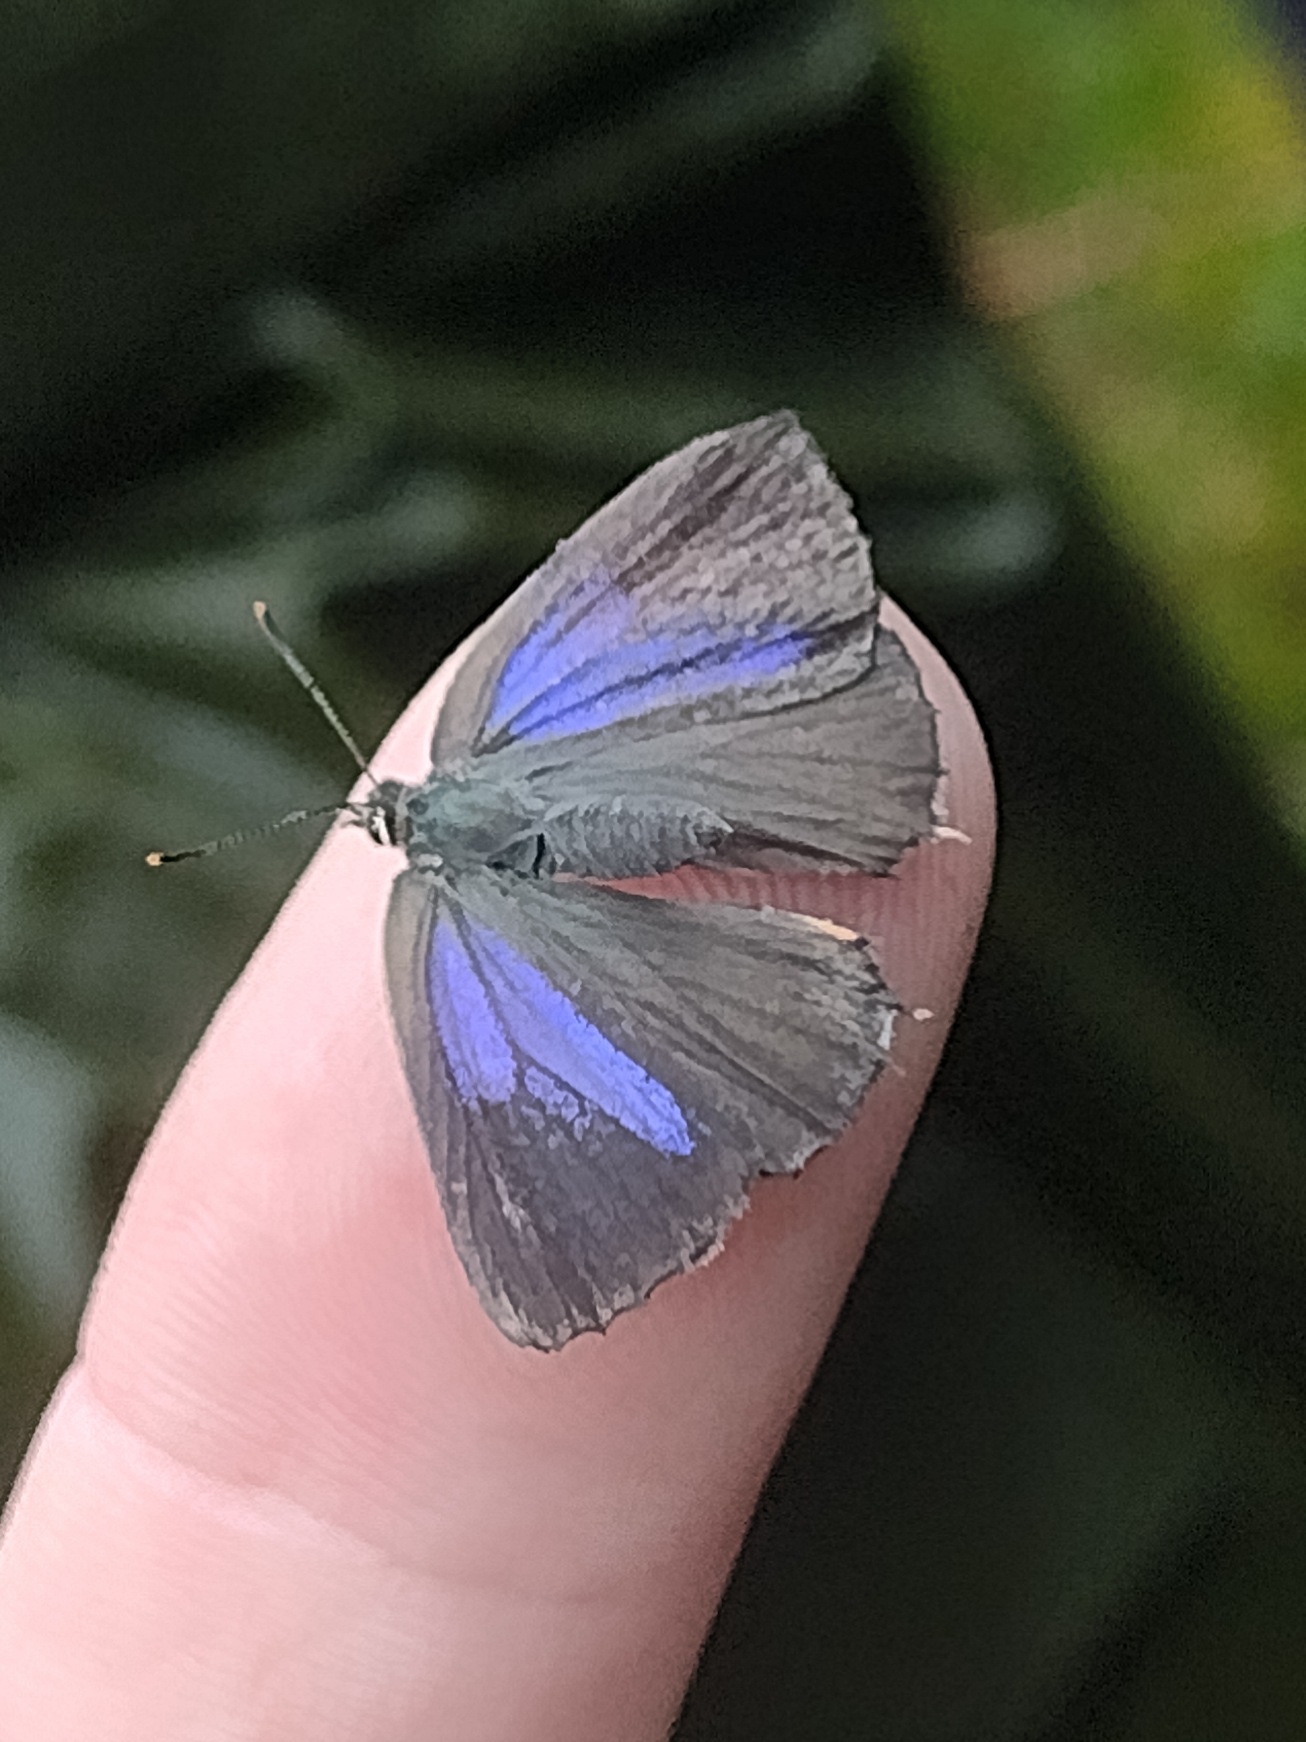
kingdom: Animalia
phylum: Arthropoda
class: Insecta
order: Lepidoptera
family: Lycaenidae
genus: Quercusia
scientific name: Quercusia quercus
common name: Blåhale
